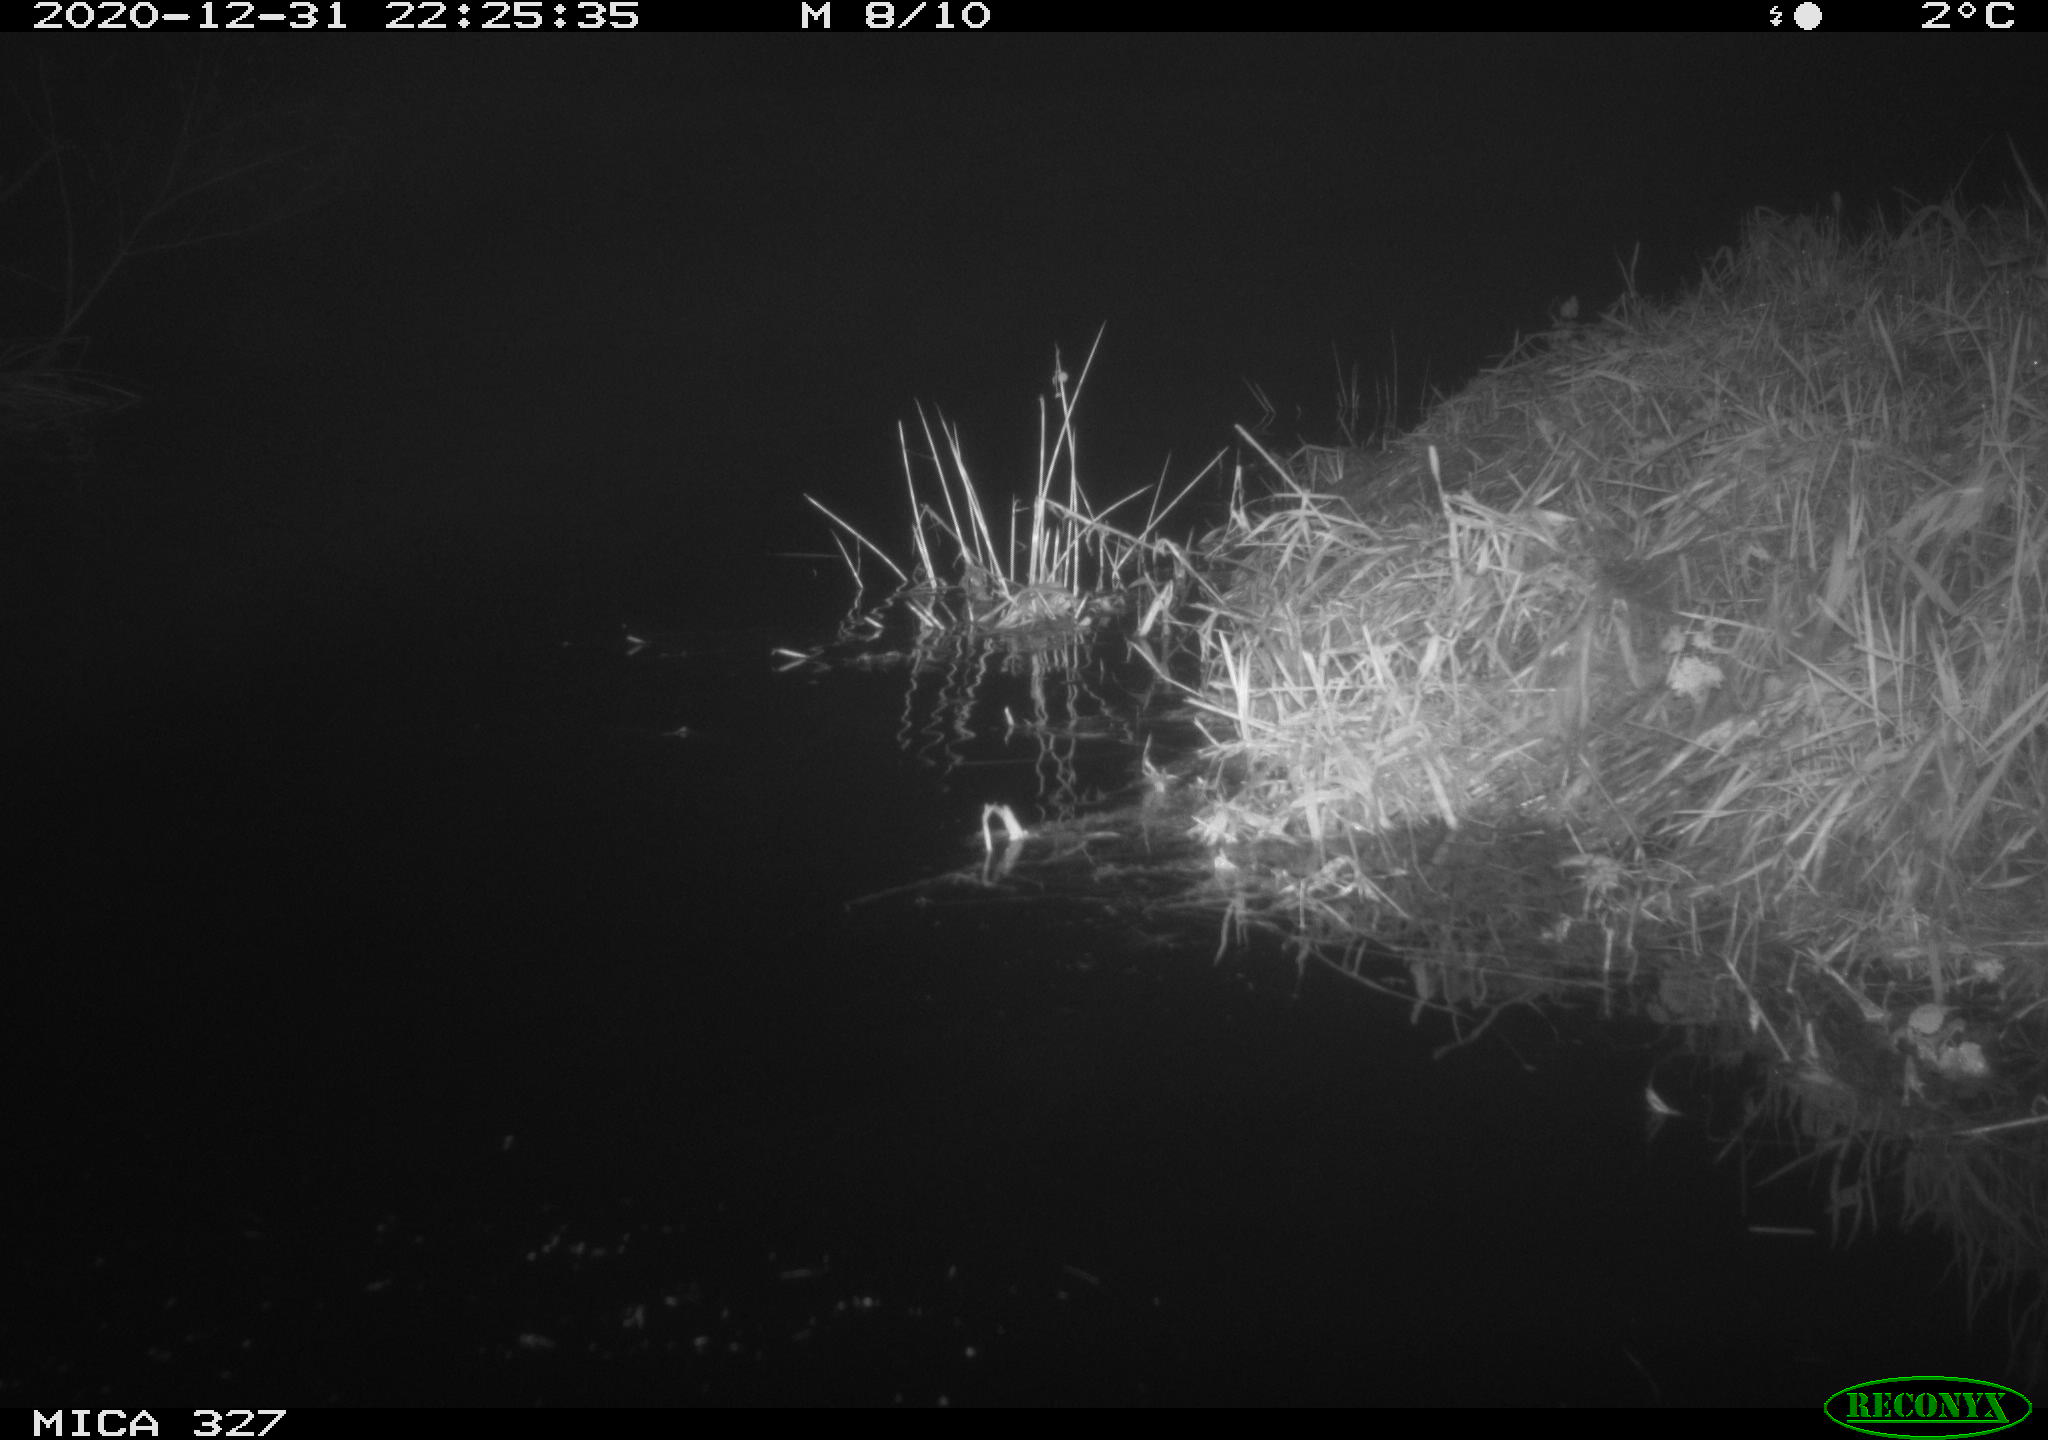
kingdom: Animalia
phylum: Chordata
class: Mammalia
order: Rodentia
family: Cricetidae
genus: Ondatra
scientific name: Ondatra zibethicus
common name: Muskrat
